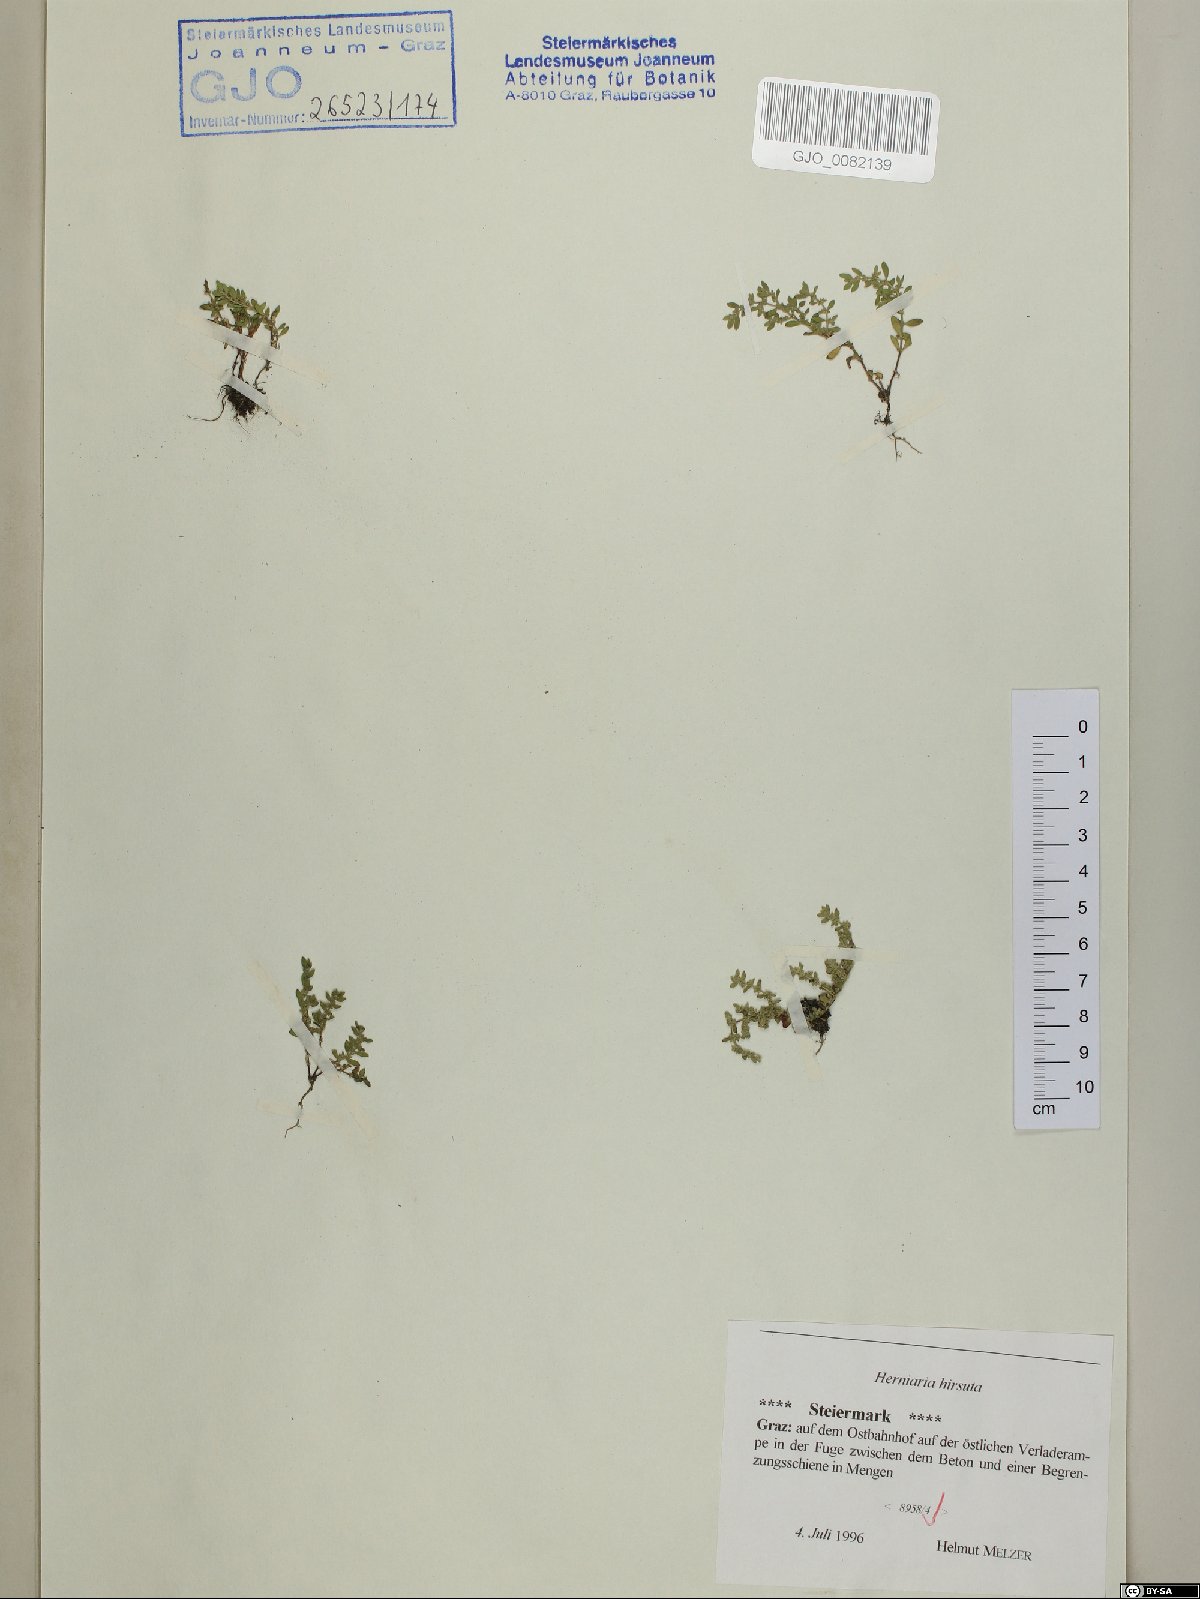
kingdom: Plantae
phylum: Tracheophyta
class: Magnoliopsida
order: Caryophyllales
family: Caryophyllaceae
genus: Herniaria
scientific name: Herniaria hirsuta
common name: Hairy rupturewort
